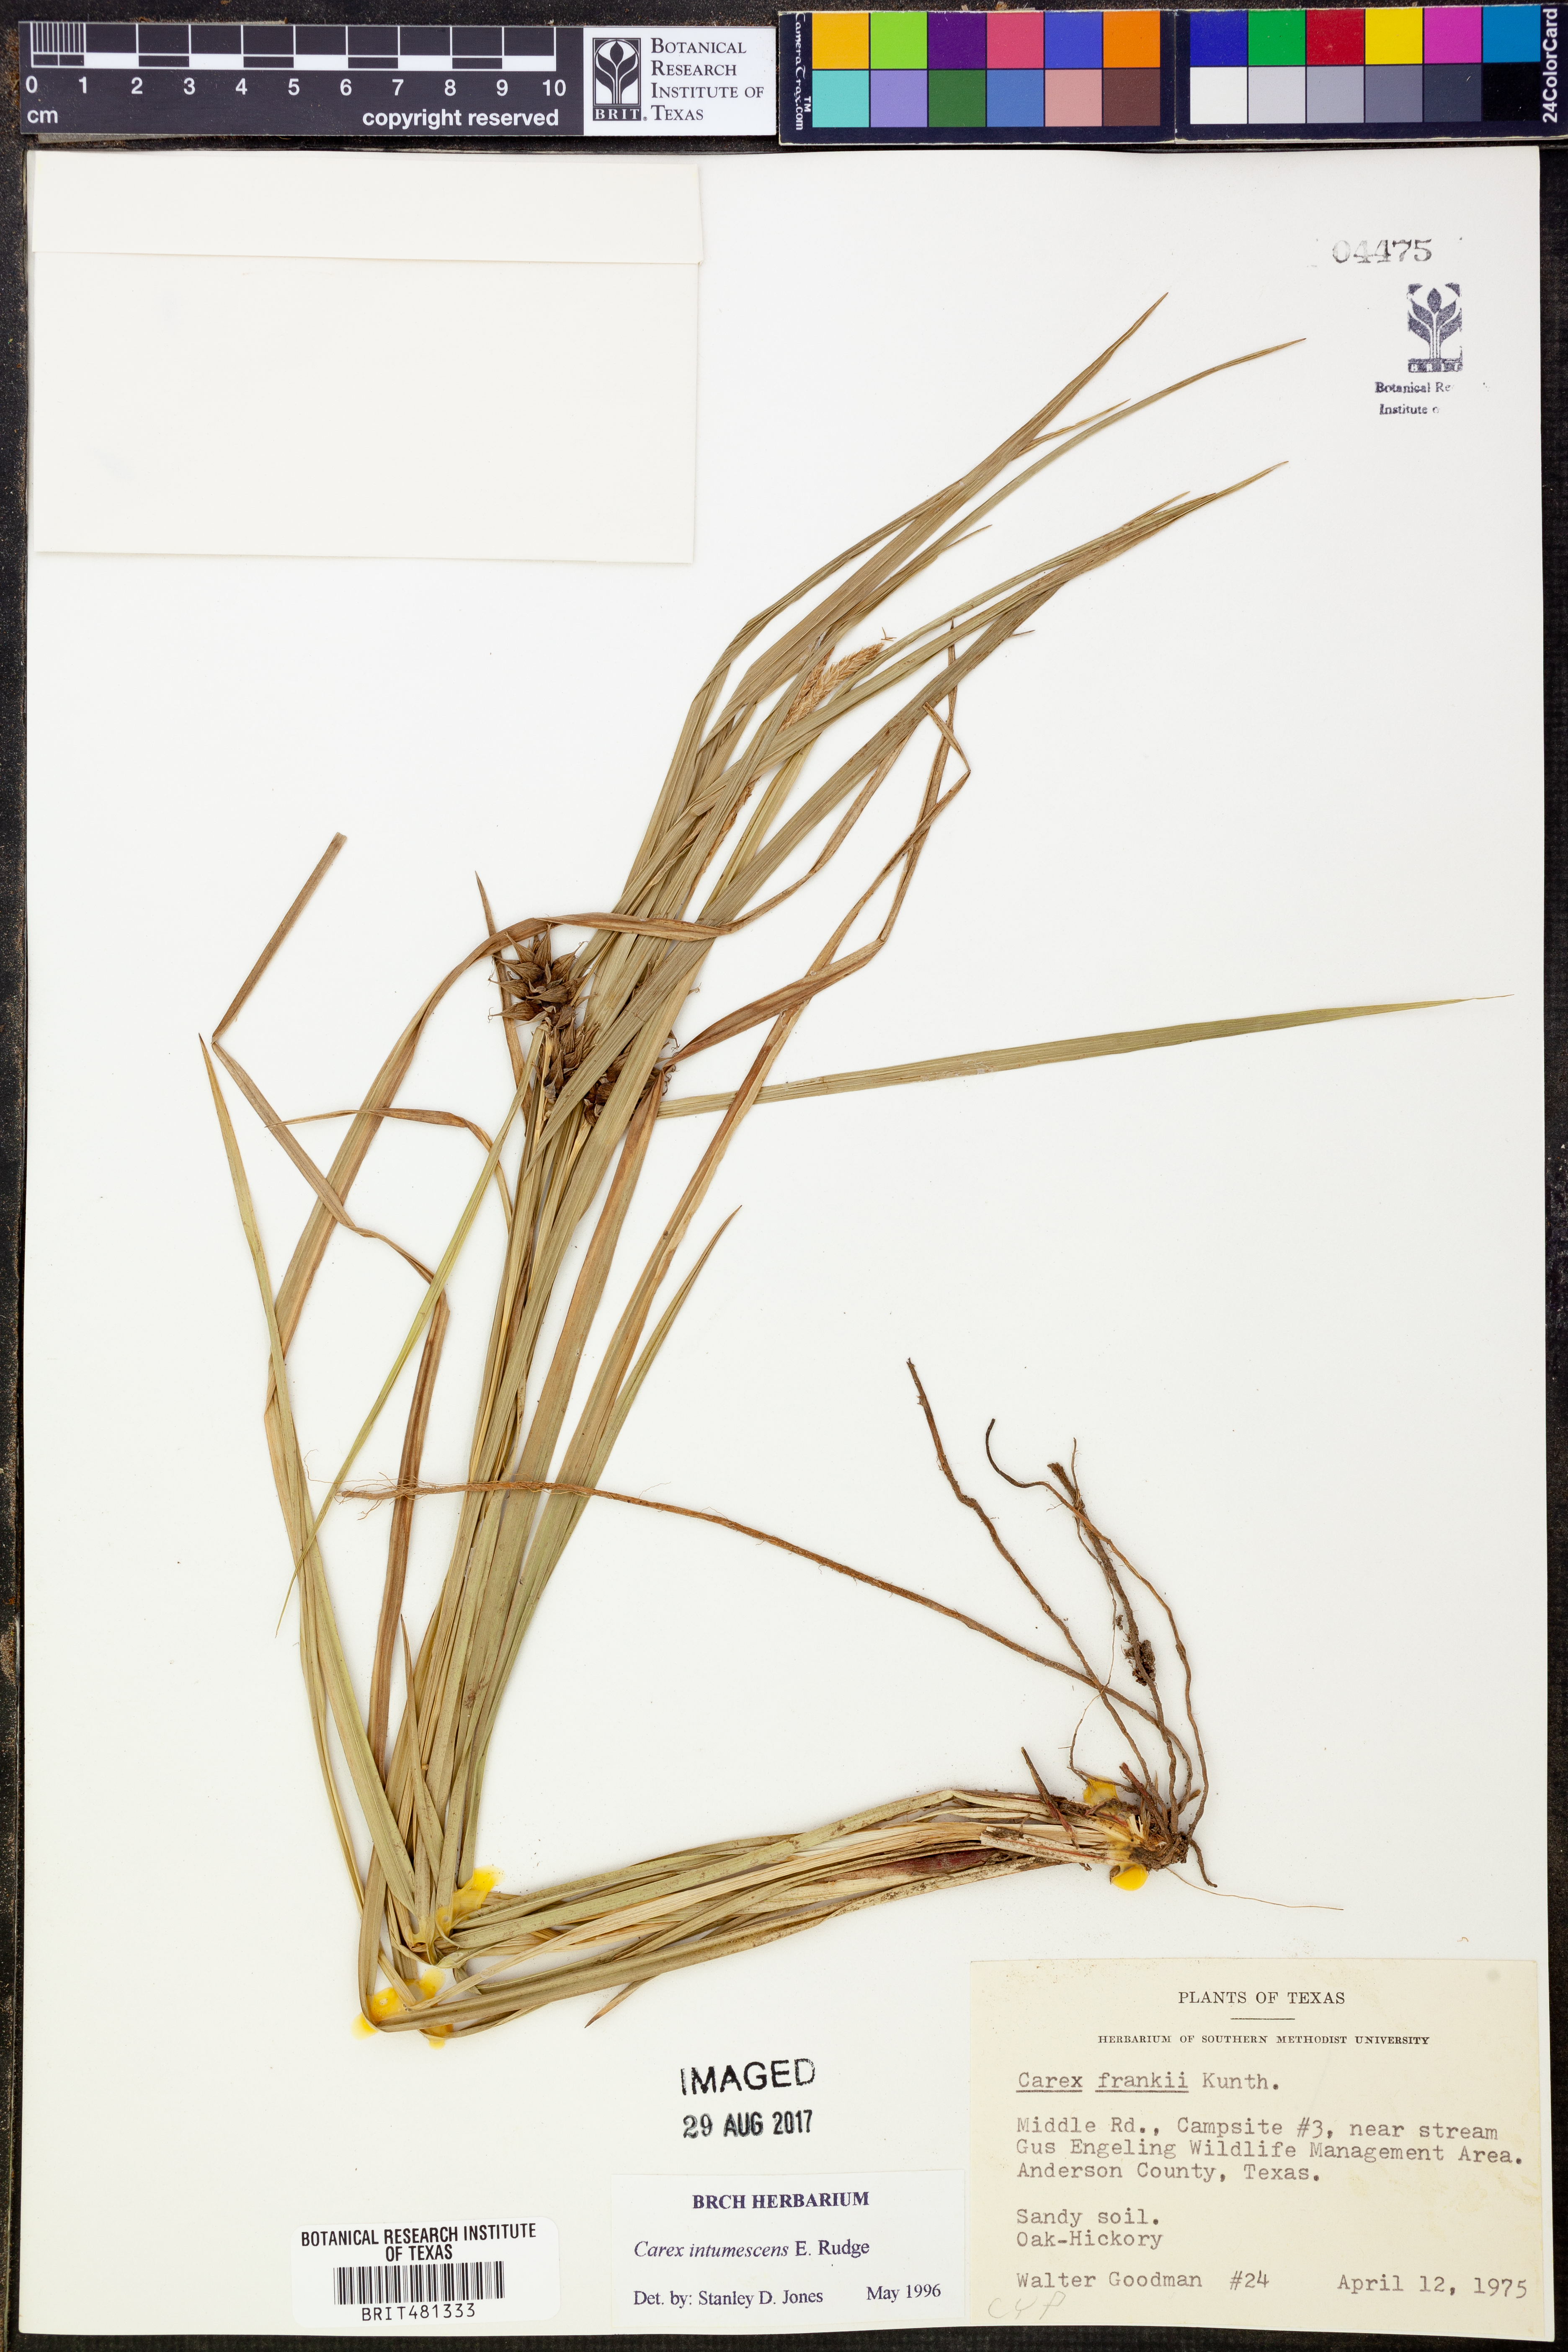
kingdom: Plantae
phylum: Tracheophyta
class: Liliopsida
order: Poales
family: Cyperaceae
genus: Carex
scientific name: Carex intumescens
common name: Greater bladder sedge
